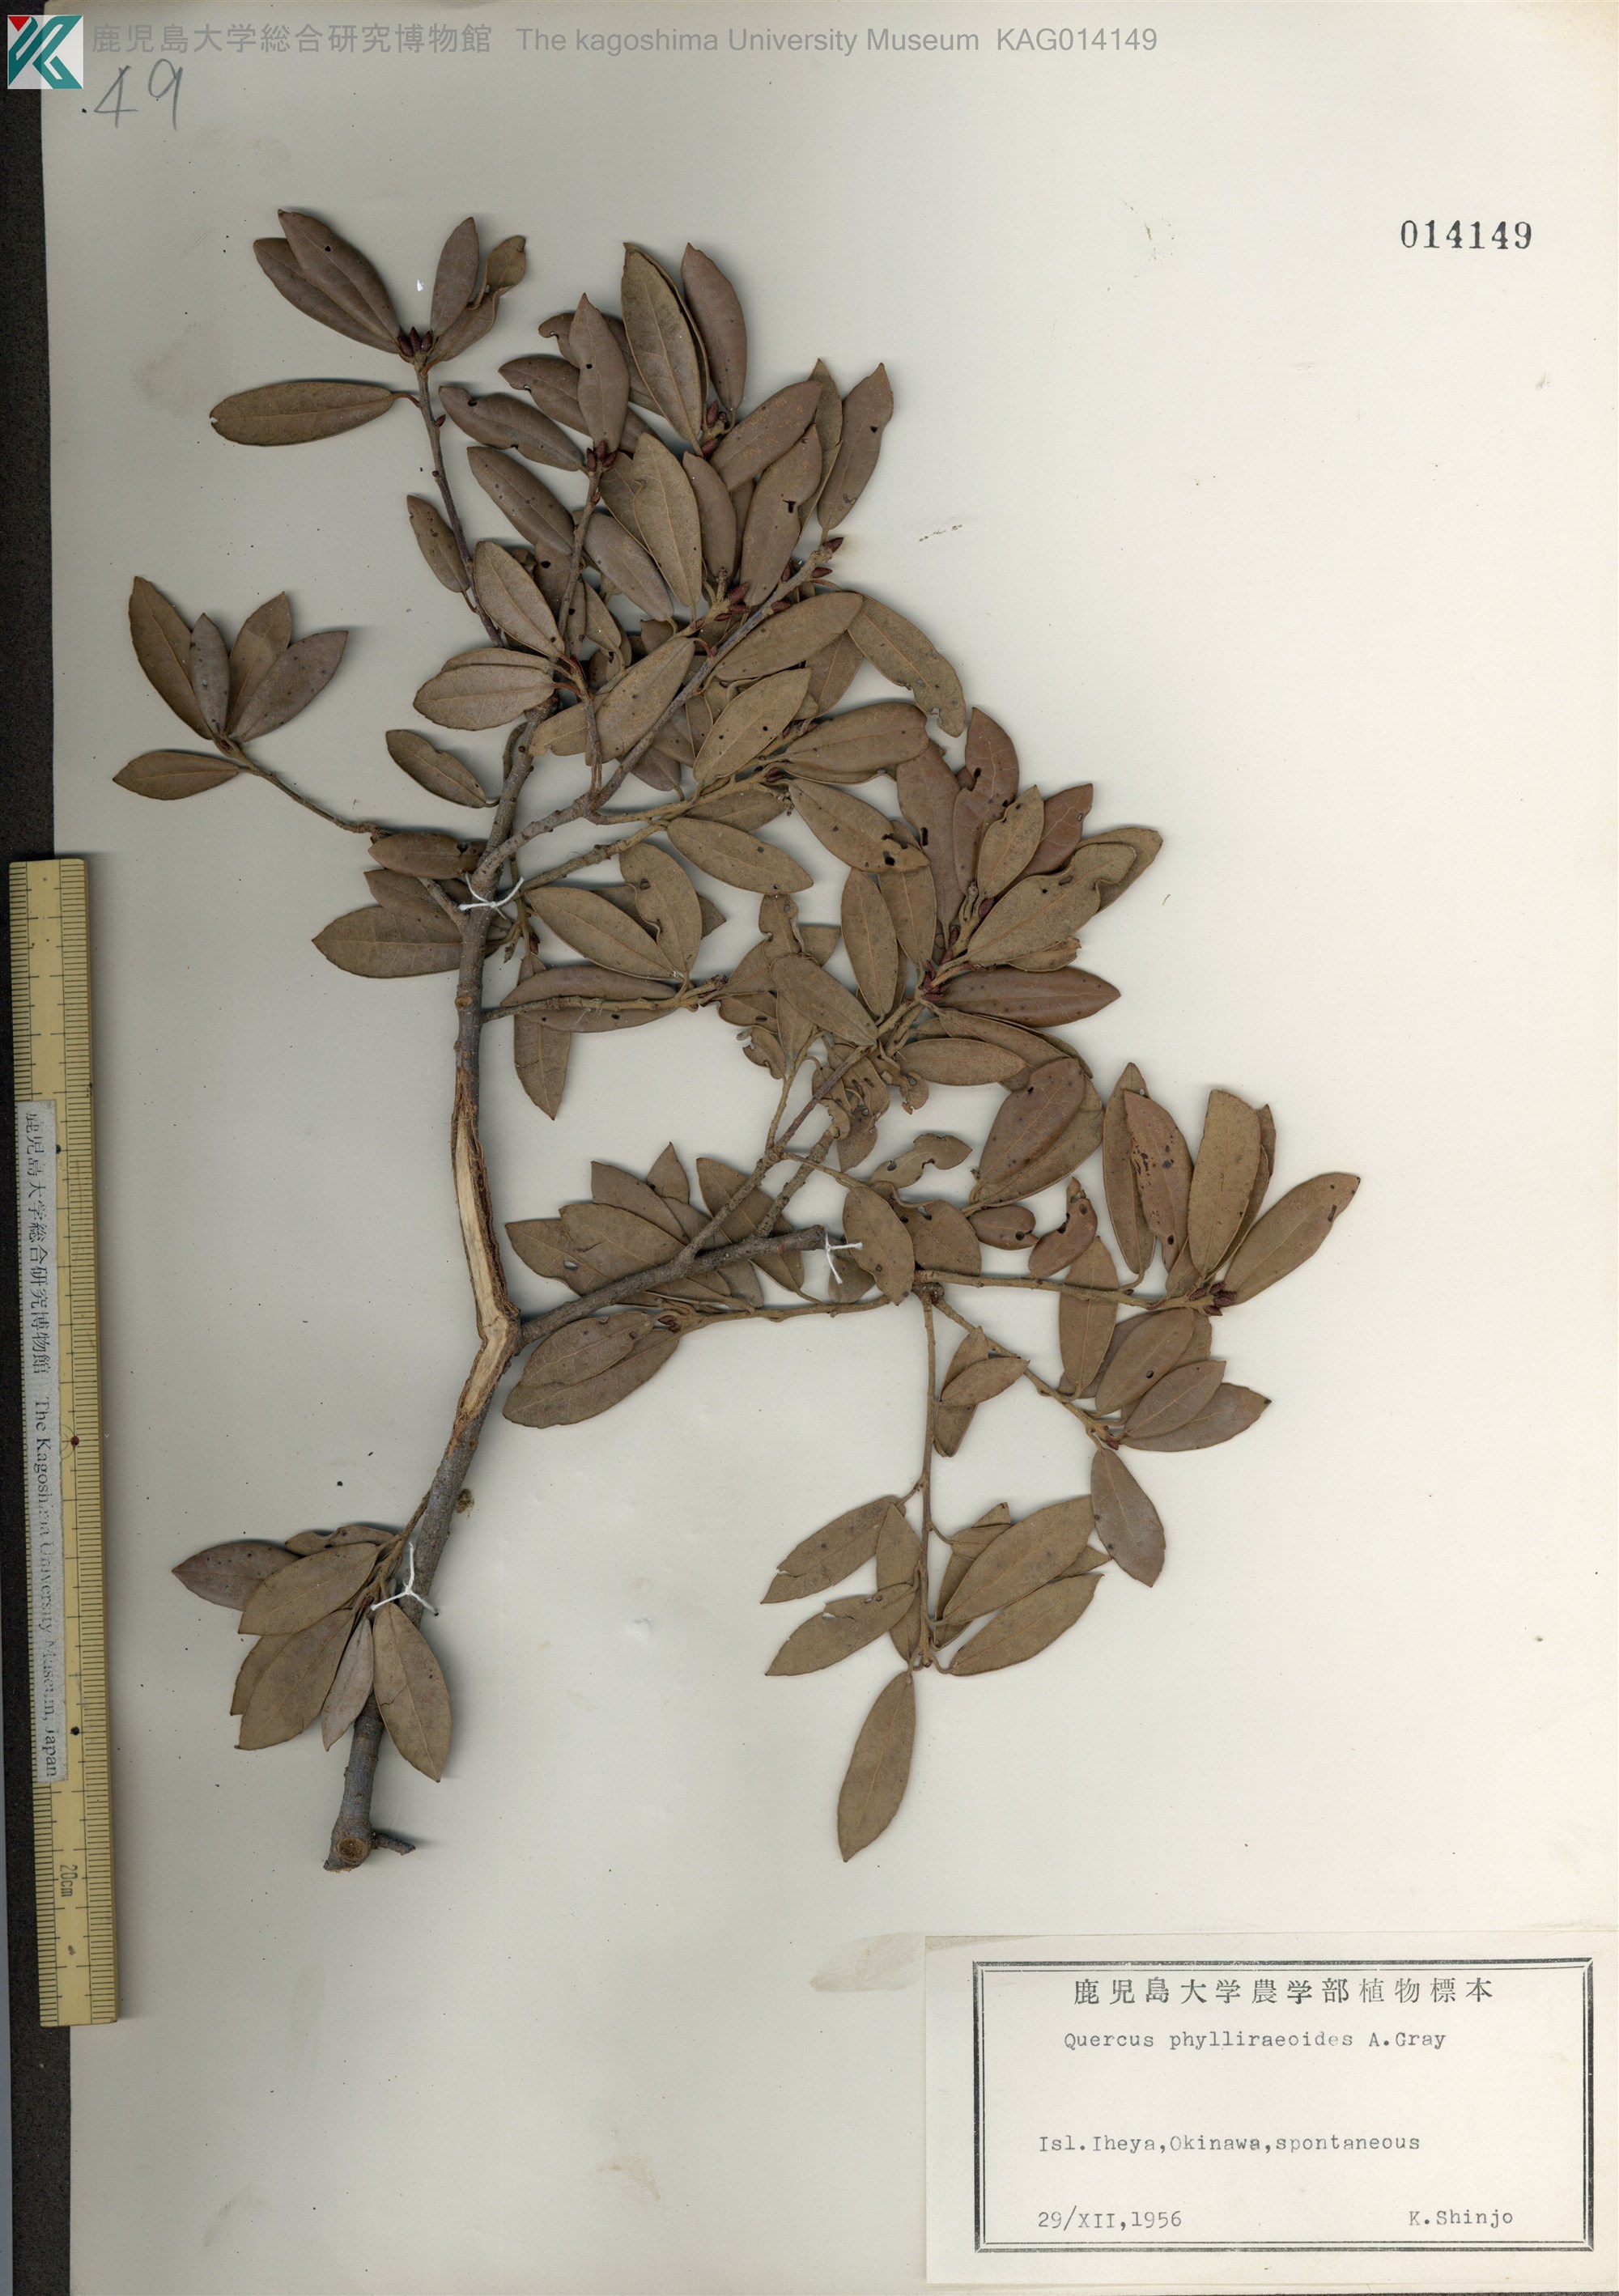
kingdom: Plantae
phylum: Tracheophyta
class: Magnoliopsida
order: Fagales
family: Fagaceae
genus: Quercus
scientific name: Quercus phillyraeoides
